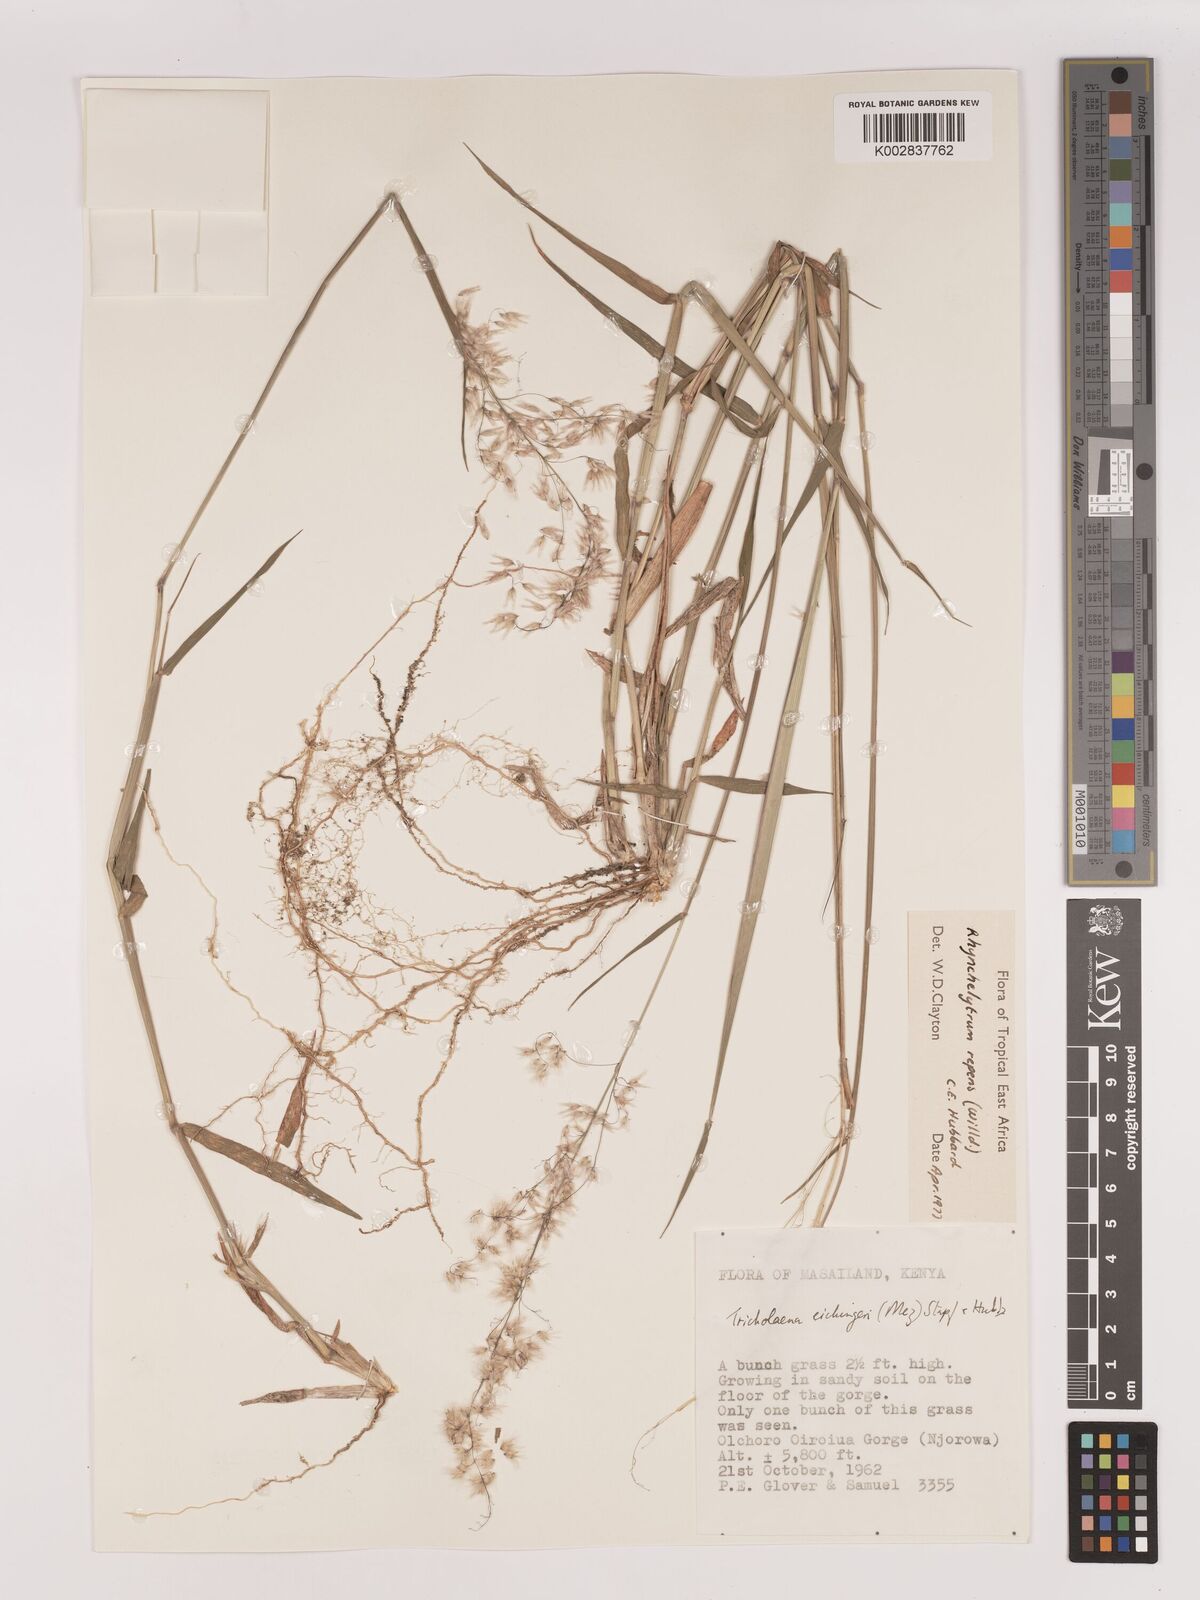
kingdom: Plantae
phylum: Tracheophyta
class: Liliopsida
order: Poales
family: Poaceae
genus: Melinis
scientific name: Melinis repens
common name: Rose natal grass
